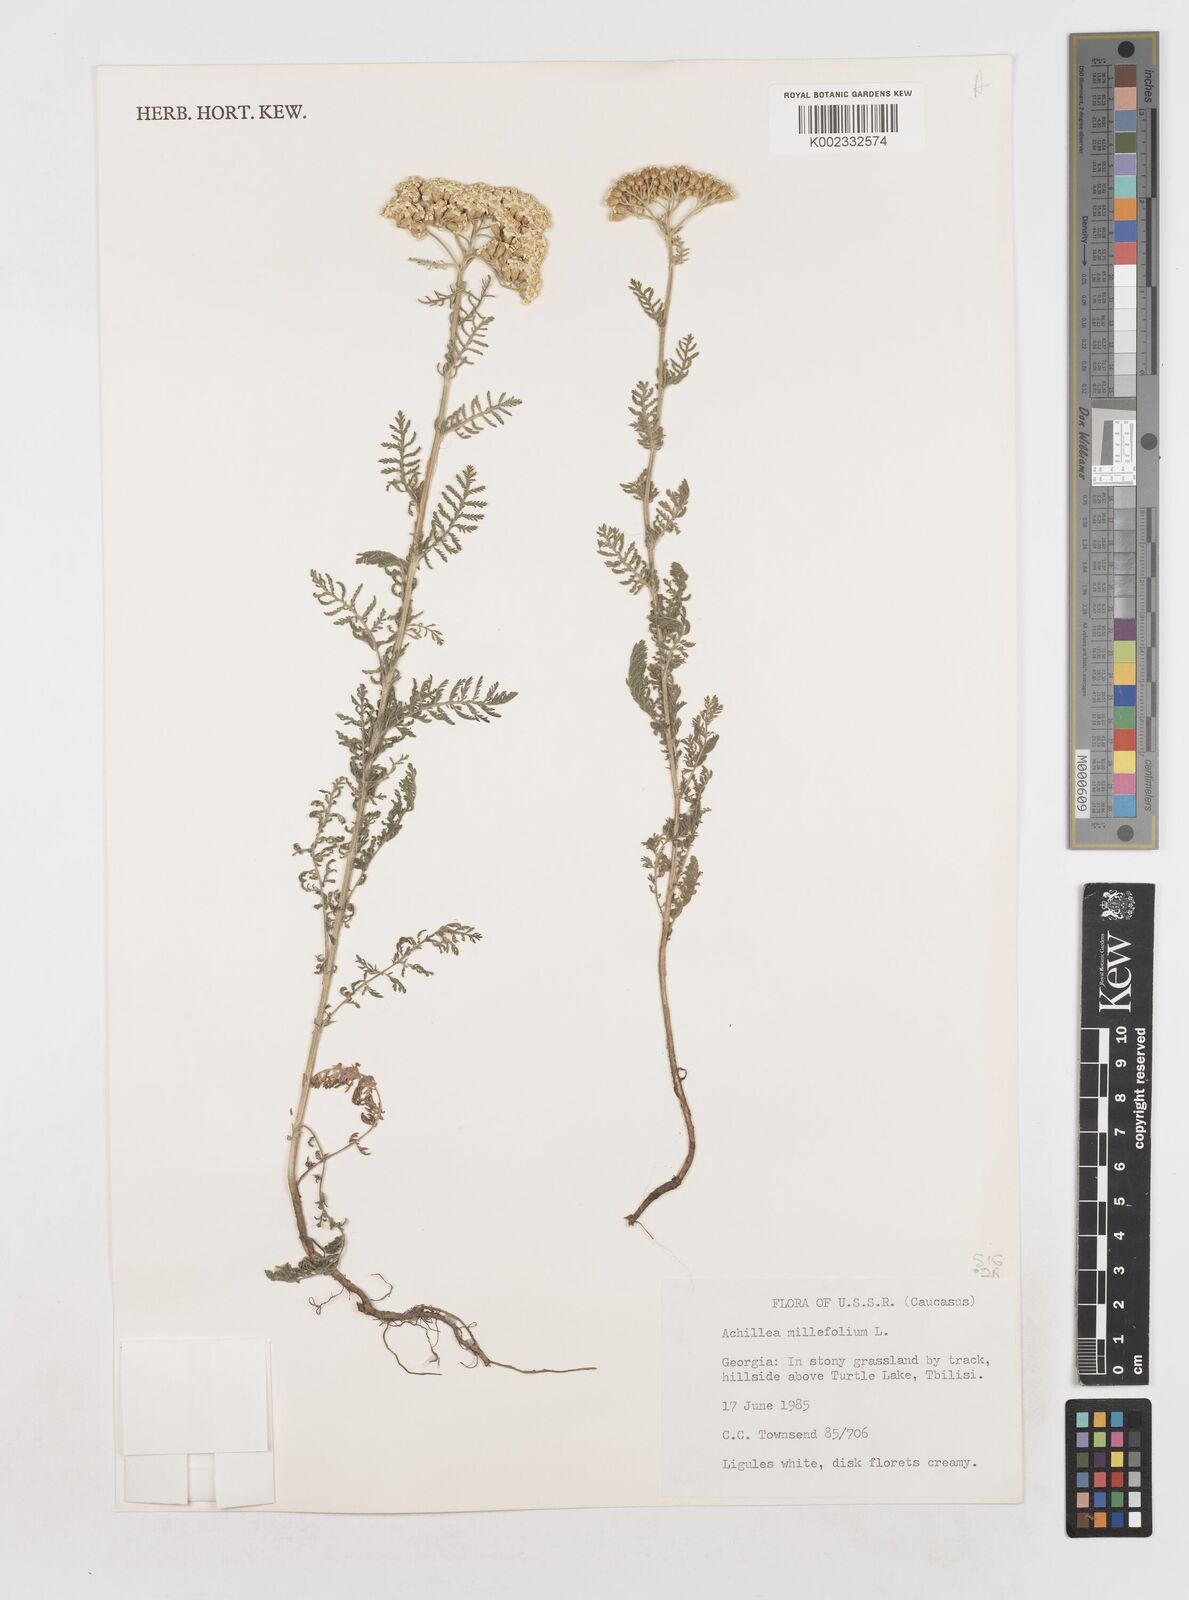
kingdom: Plantae
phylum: Tracheophyta
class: Magnoliopsida
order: Asterales
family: Asteraceae
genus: Achillea
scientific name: Achillea millefolium
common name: Yarrow
